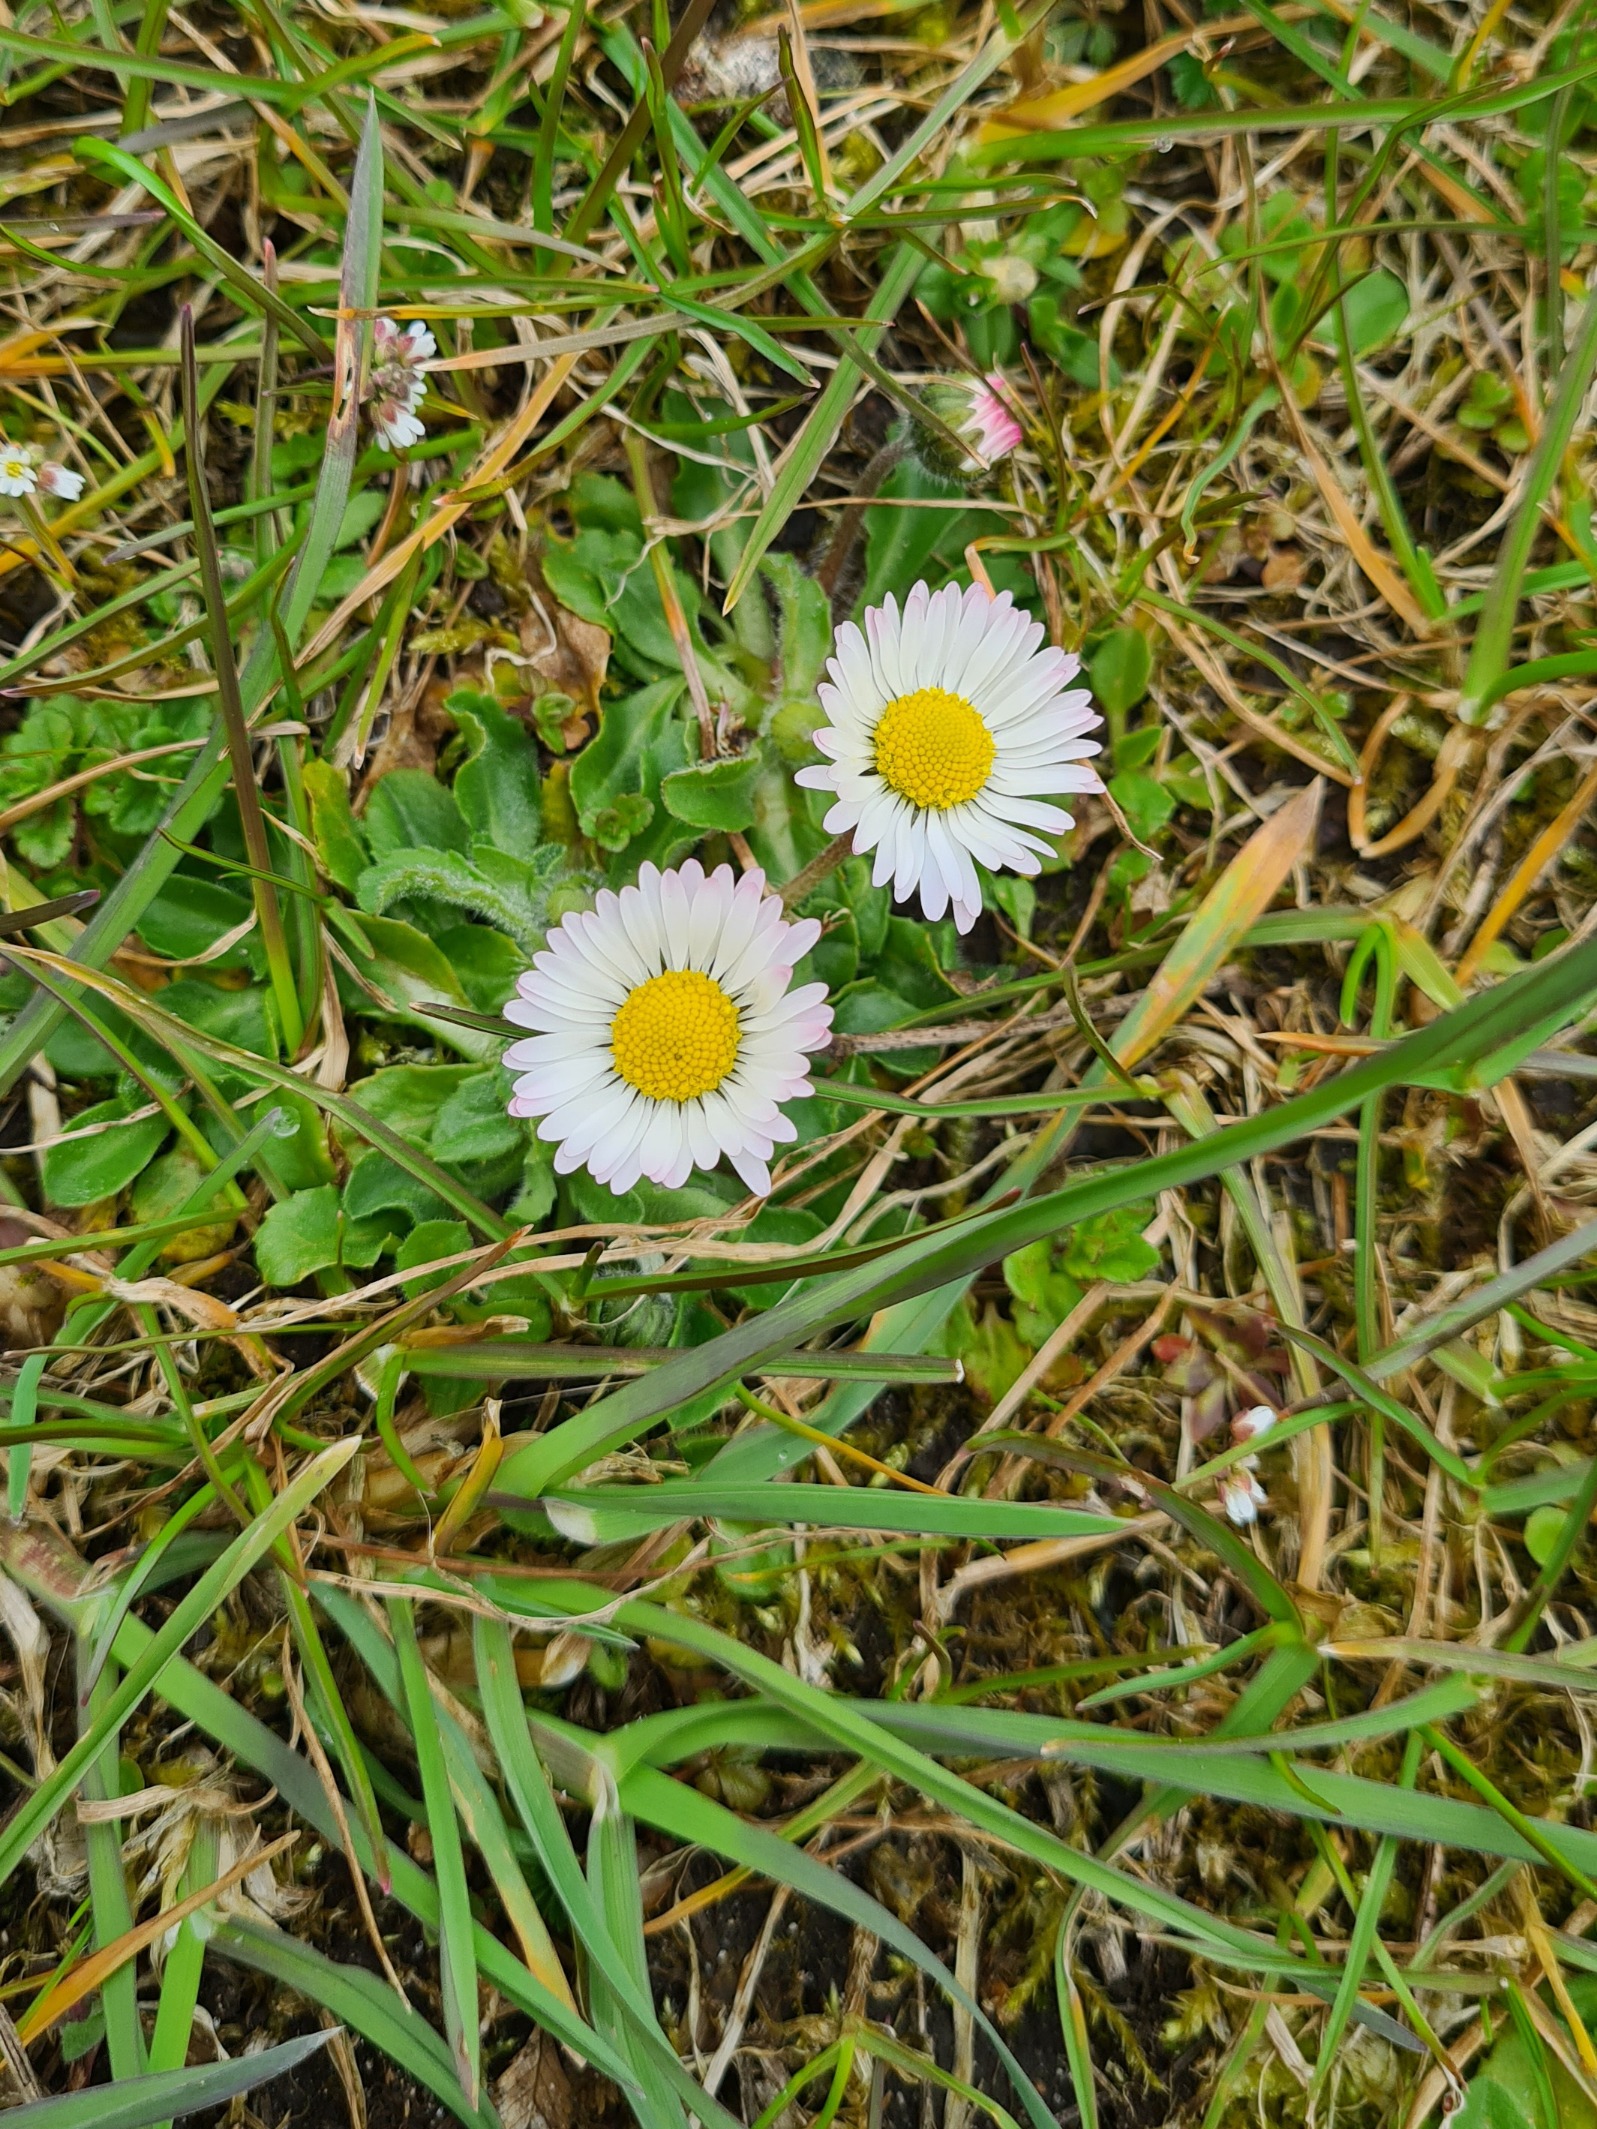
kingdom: Plantae
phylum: Tracheophyta
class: Magnoliopsida
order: Asterales
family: Asteraceae
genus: Bellis
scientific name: Bellis perennis
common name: Tusindfryd
